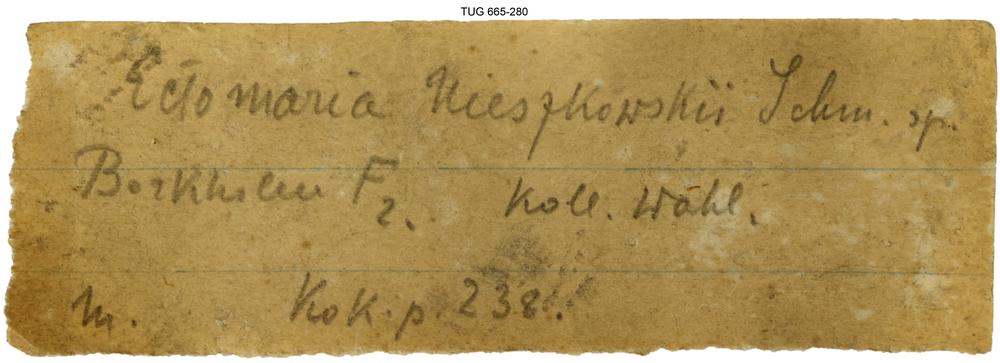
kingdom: Animalia
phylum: Mollusca
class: Gastropoda
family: Lophospiridae
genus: Ectomaria
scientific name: Ectomaria Murchisonia nieszkowskii
